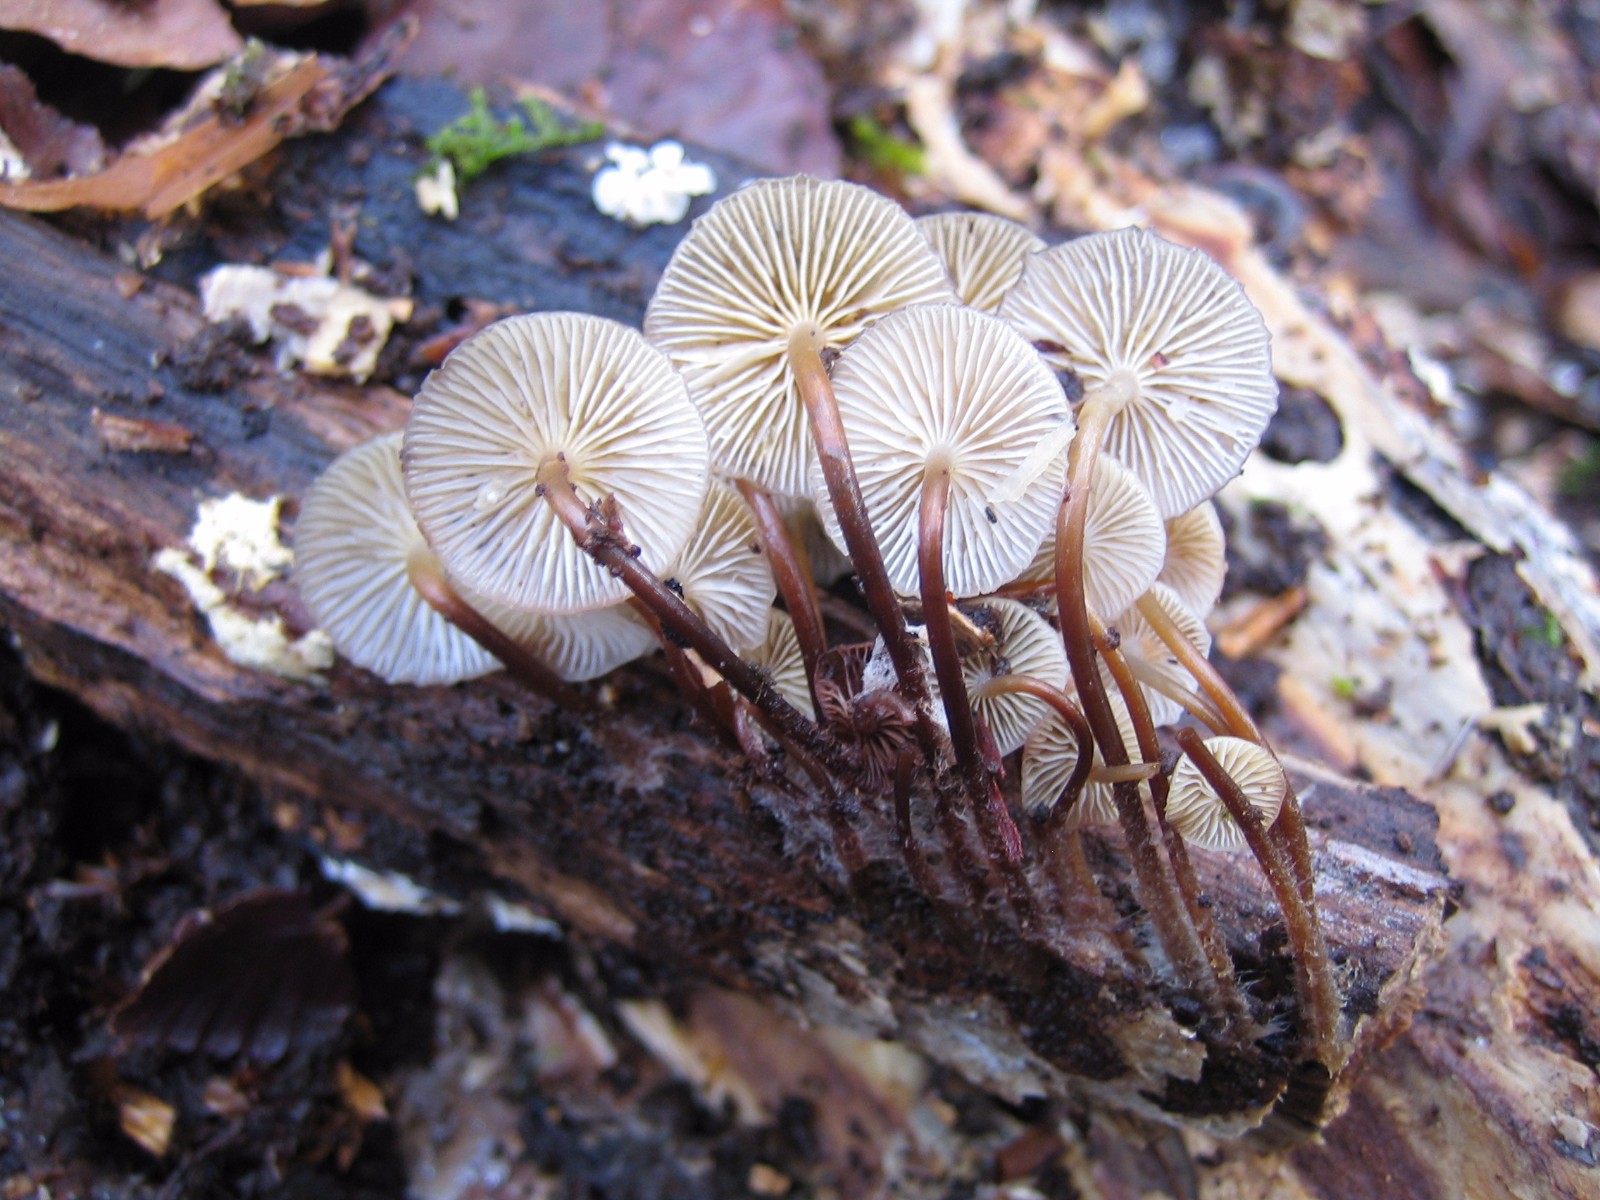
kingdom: Fungi
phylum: Basidiomycota
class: Agaricomycetes
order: Agaricales
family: Mycenaceae
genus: Mycena
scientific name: Mycena tintinnabulum
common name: vinter-huesvamp
